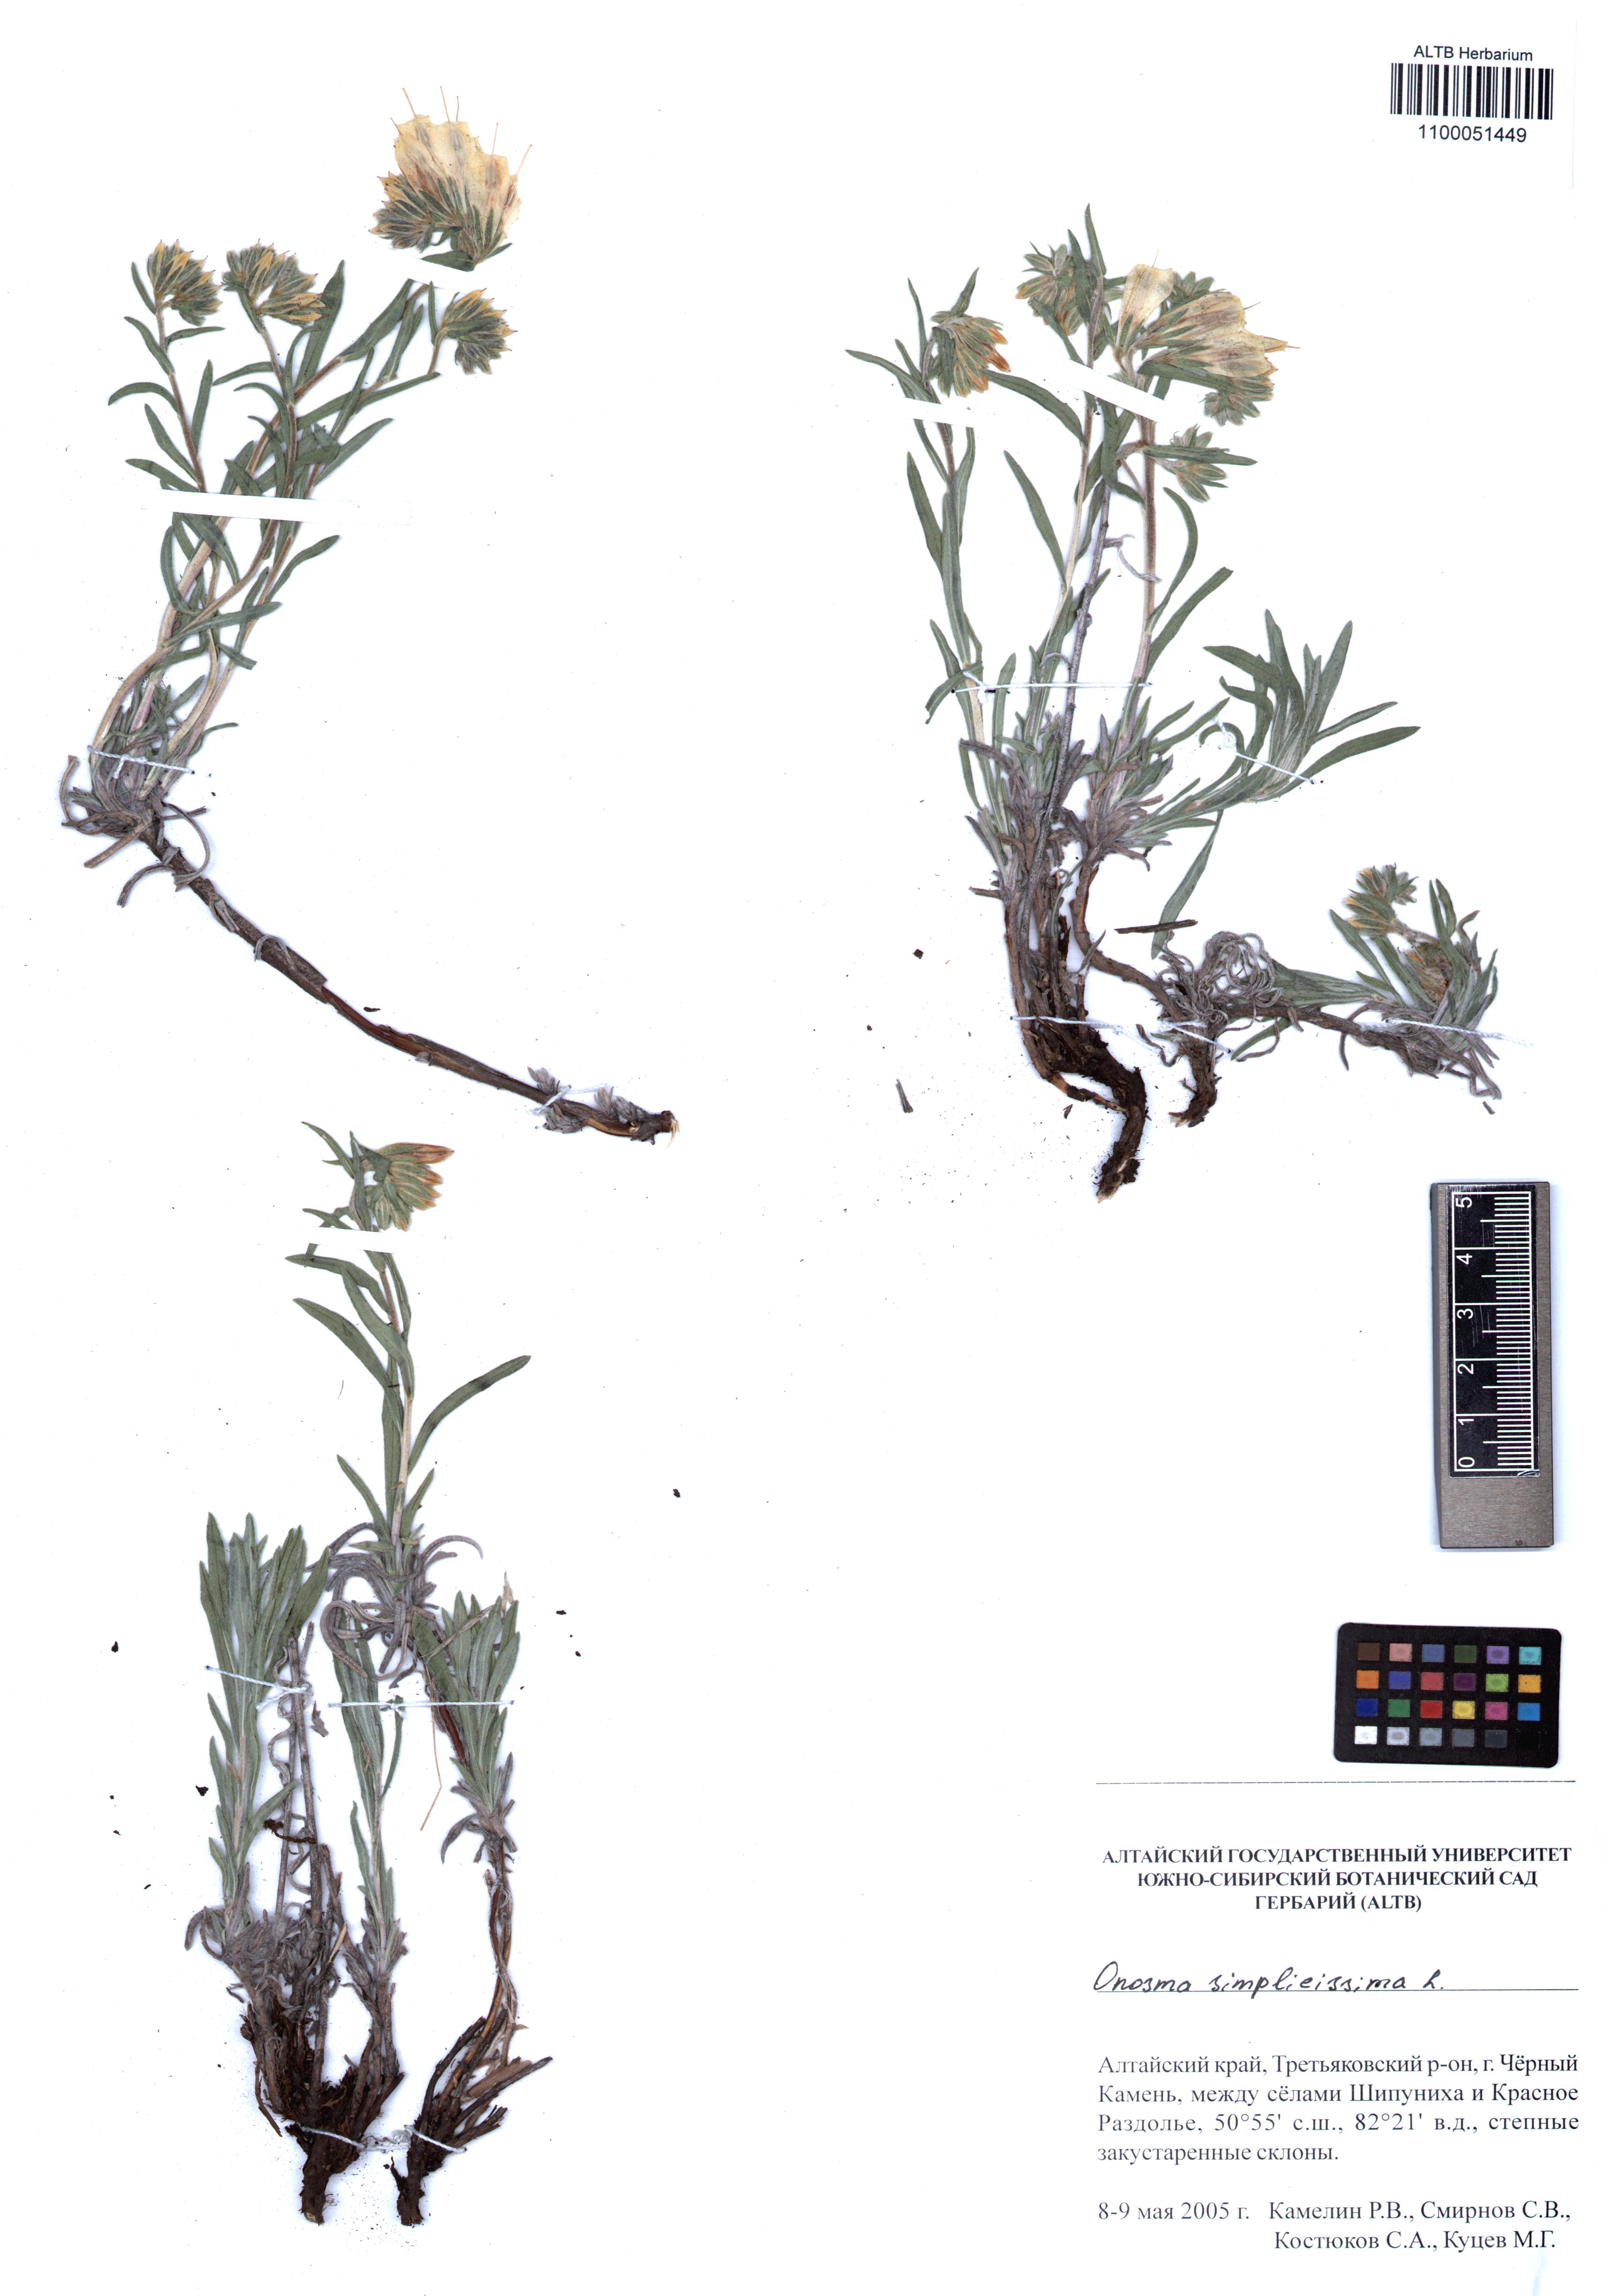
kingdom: Plantae
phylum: Tracheophyta
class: Magnoliopsida
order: Boraginales
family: Boraginaceae
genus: Onosma
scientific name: Onosma simplicissima
